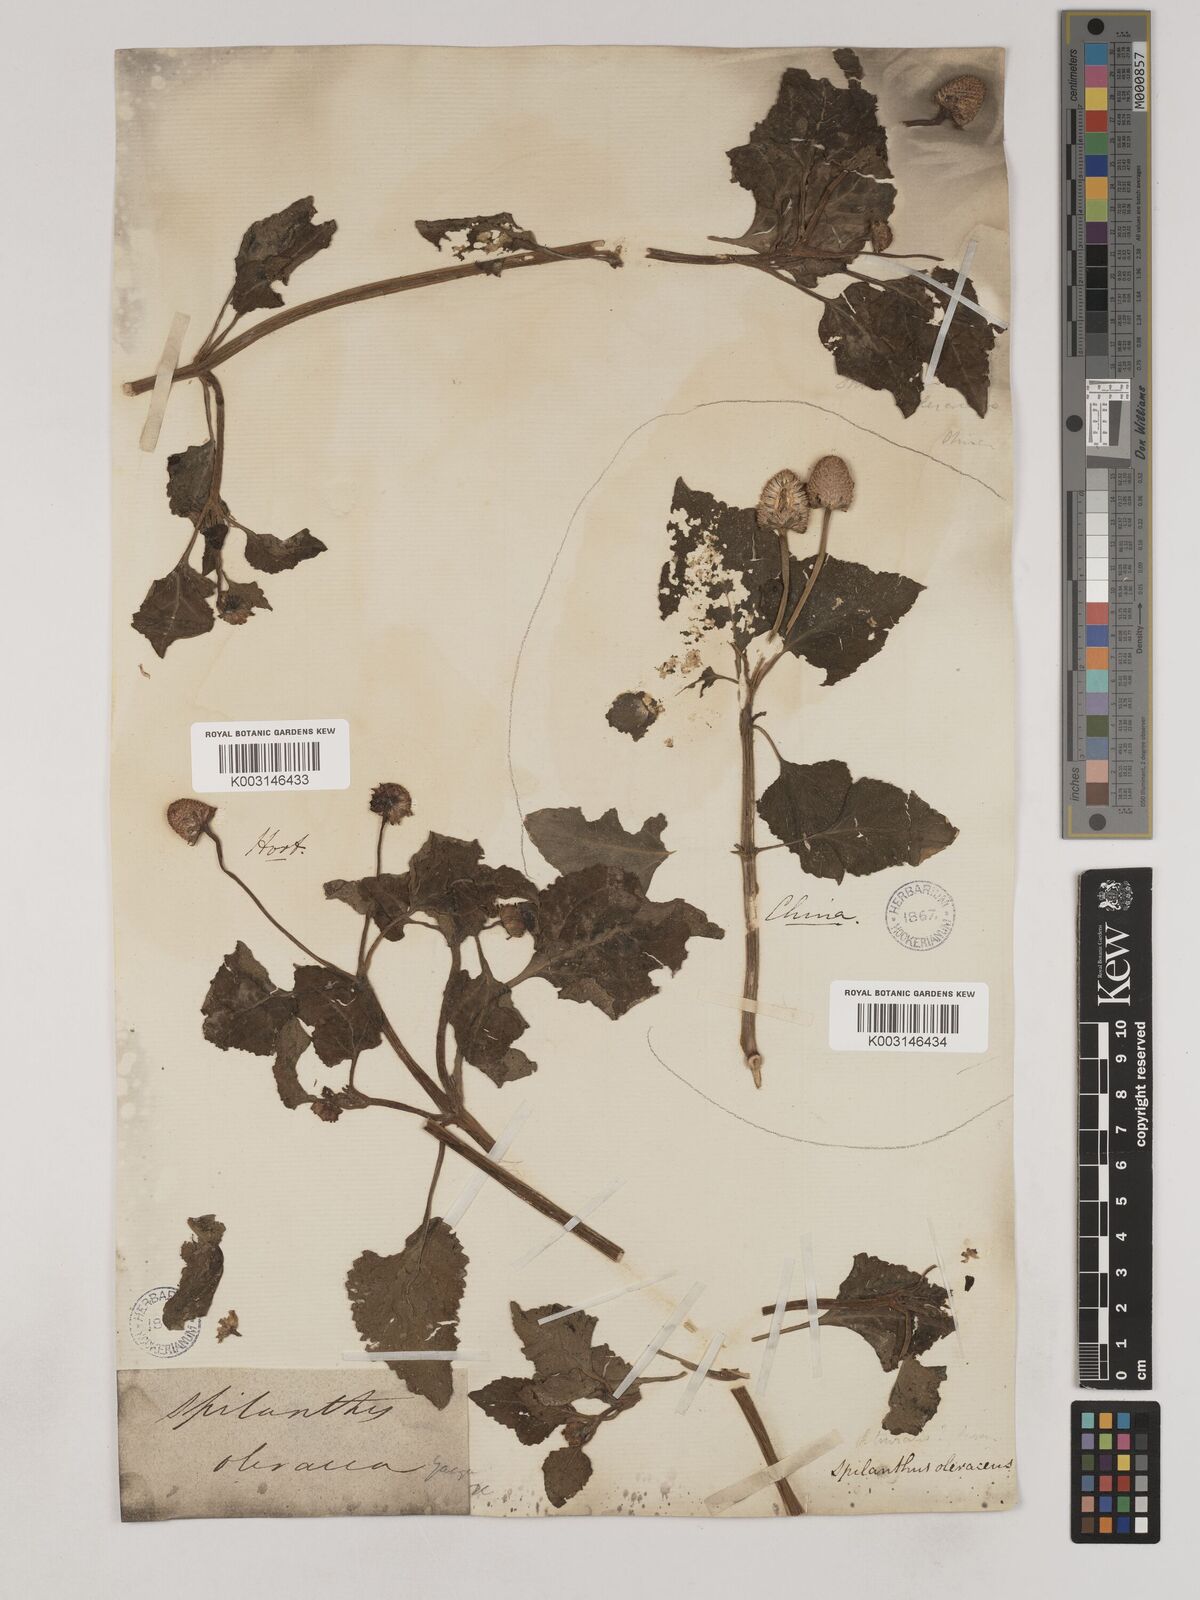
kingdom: Plantae
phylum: Tracheophyta
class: Magnoliopsida
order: Asterales
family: Asteraceae
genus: Acmella
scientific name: Acmella oleracea
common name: Brazilian cress
